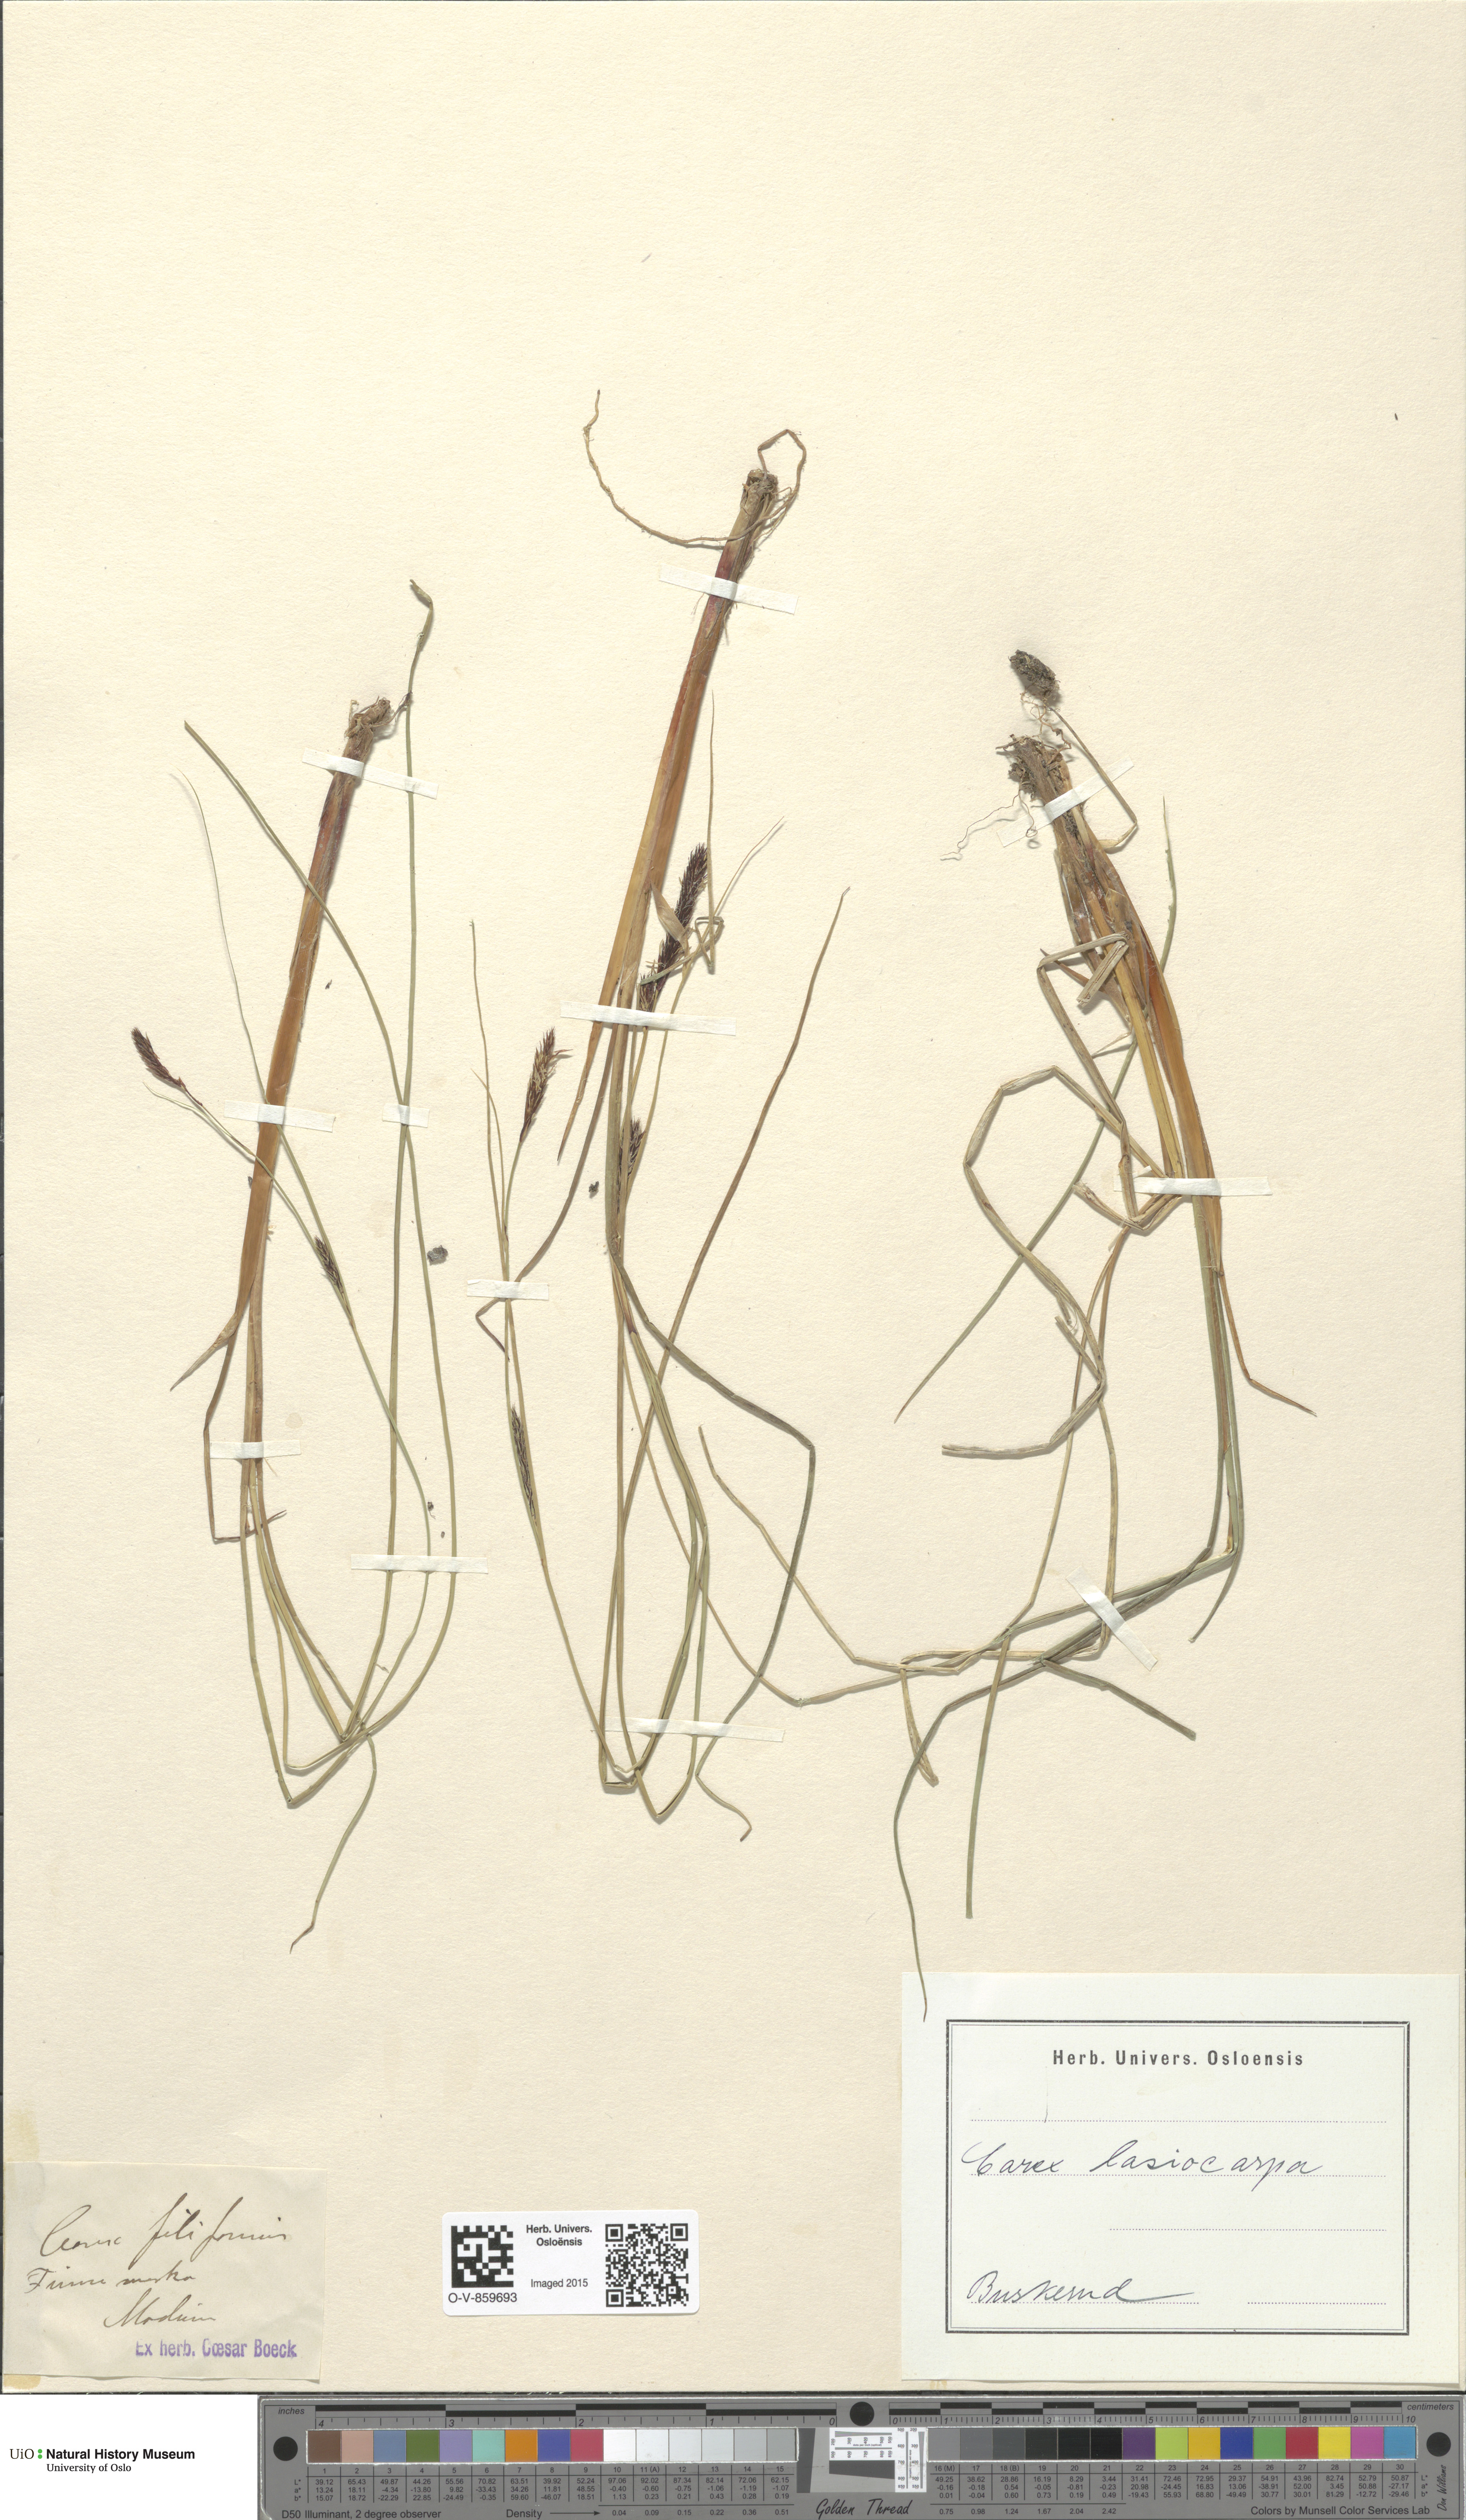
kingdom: Plantae
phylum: Tracheophyta
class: Liliopsida
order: Poales
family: Cyperaceae
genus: Carex
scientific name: Carex lasiocarpa
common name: Slender sedge
